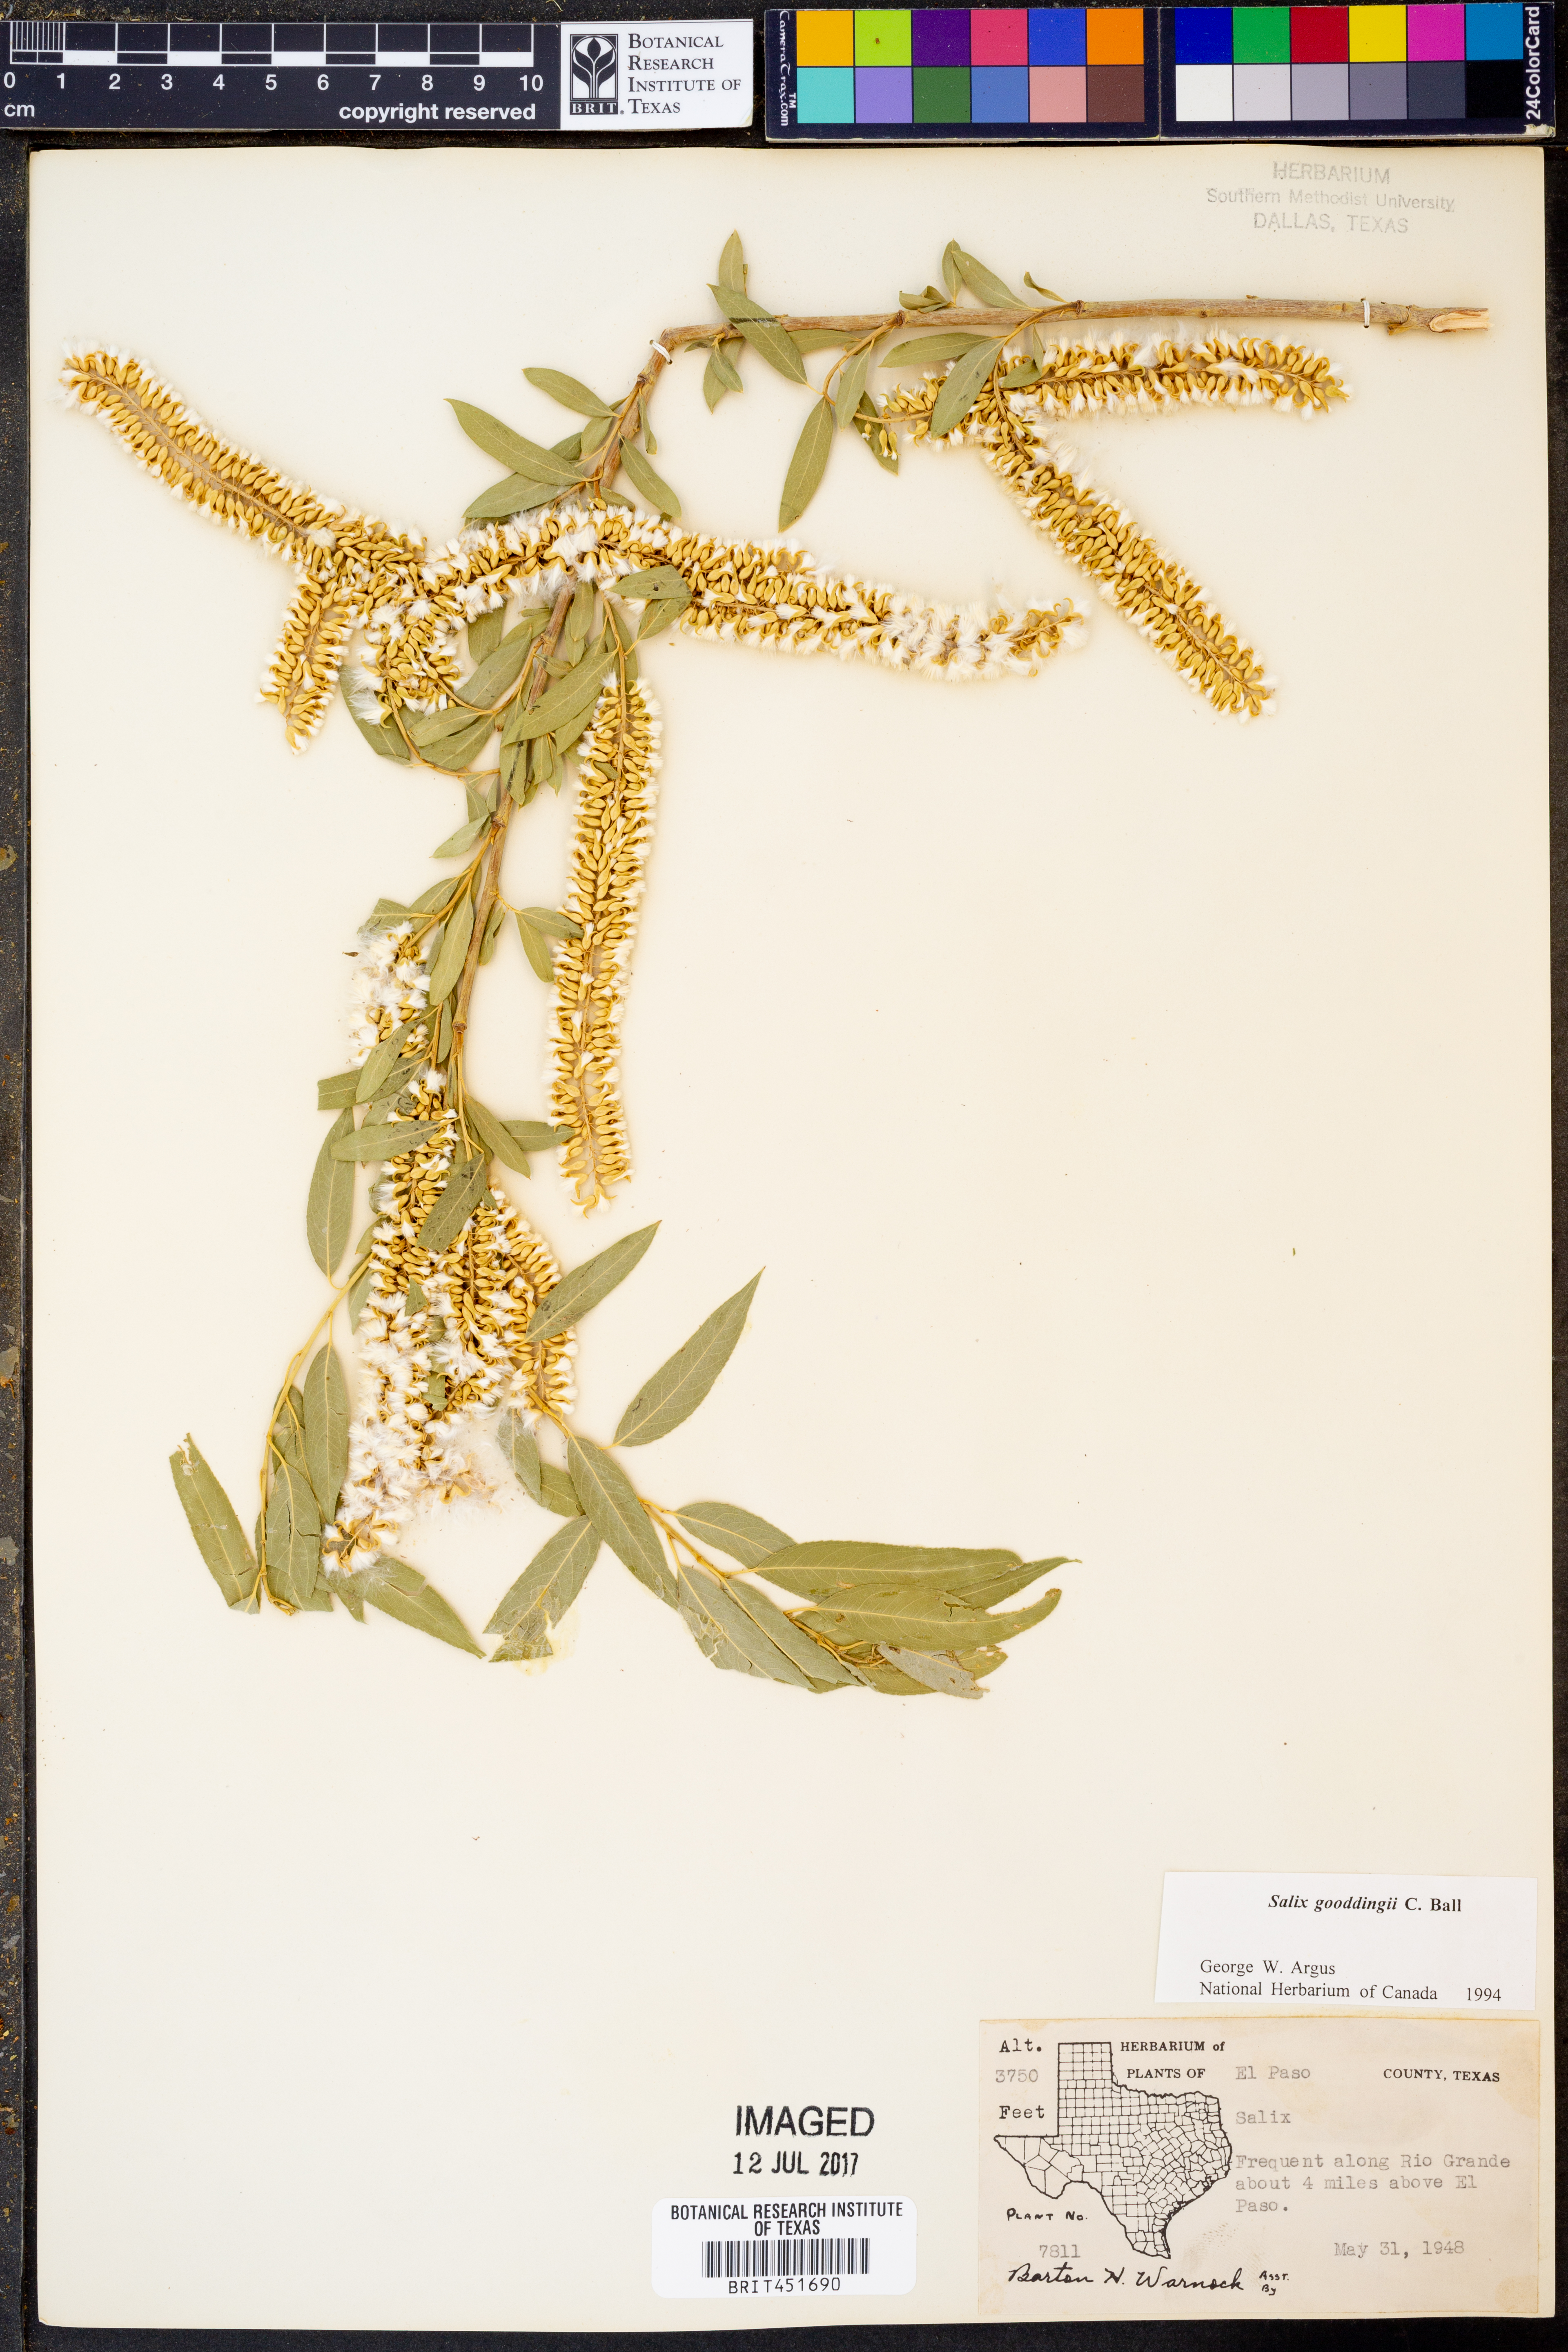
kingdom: Plantae
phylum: Tracheophyta
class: Magnoliopsida
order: Malpighiales
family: Salicaceae
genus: Salix
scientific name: Salix gooddingii
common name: Goodding's willow
